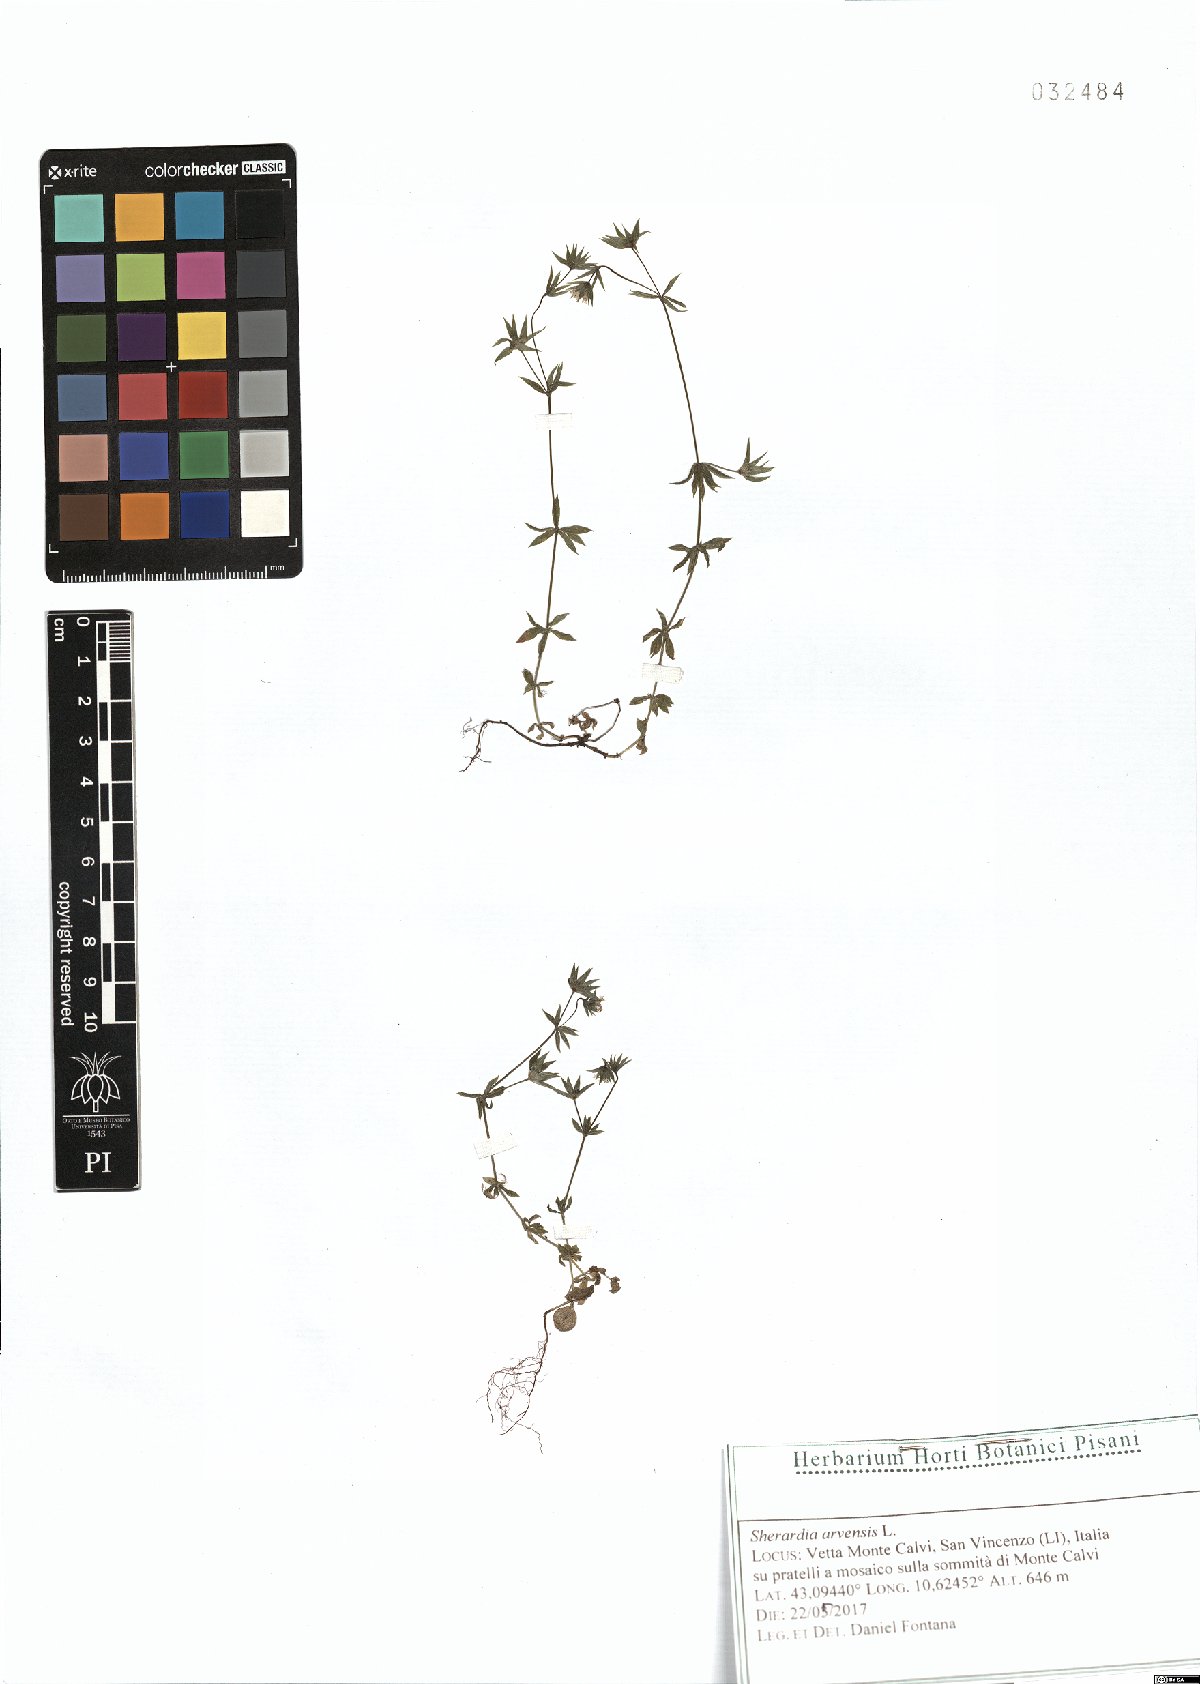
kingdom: Plantae
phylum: Tracheophyta
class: Magnoliopsida
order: Gentianales
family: Rubiaceae
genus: Sherardia
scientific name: Sherardia arvensis
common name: Field madder
